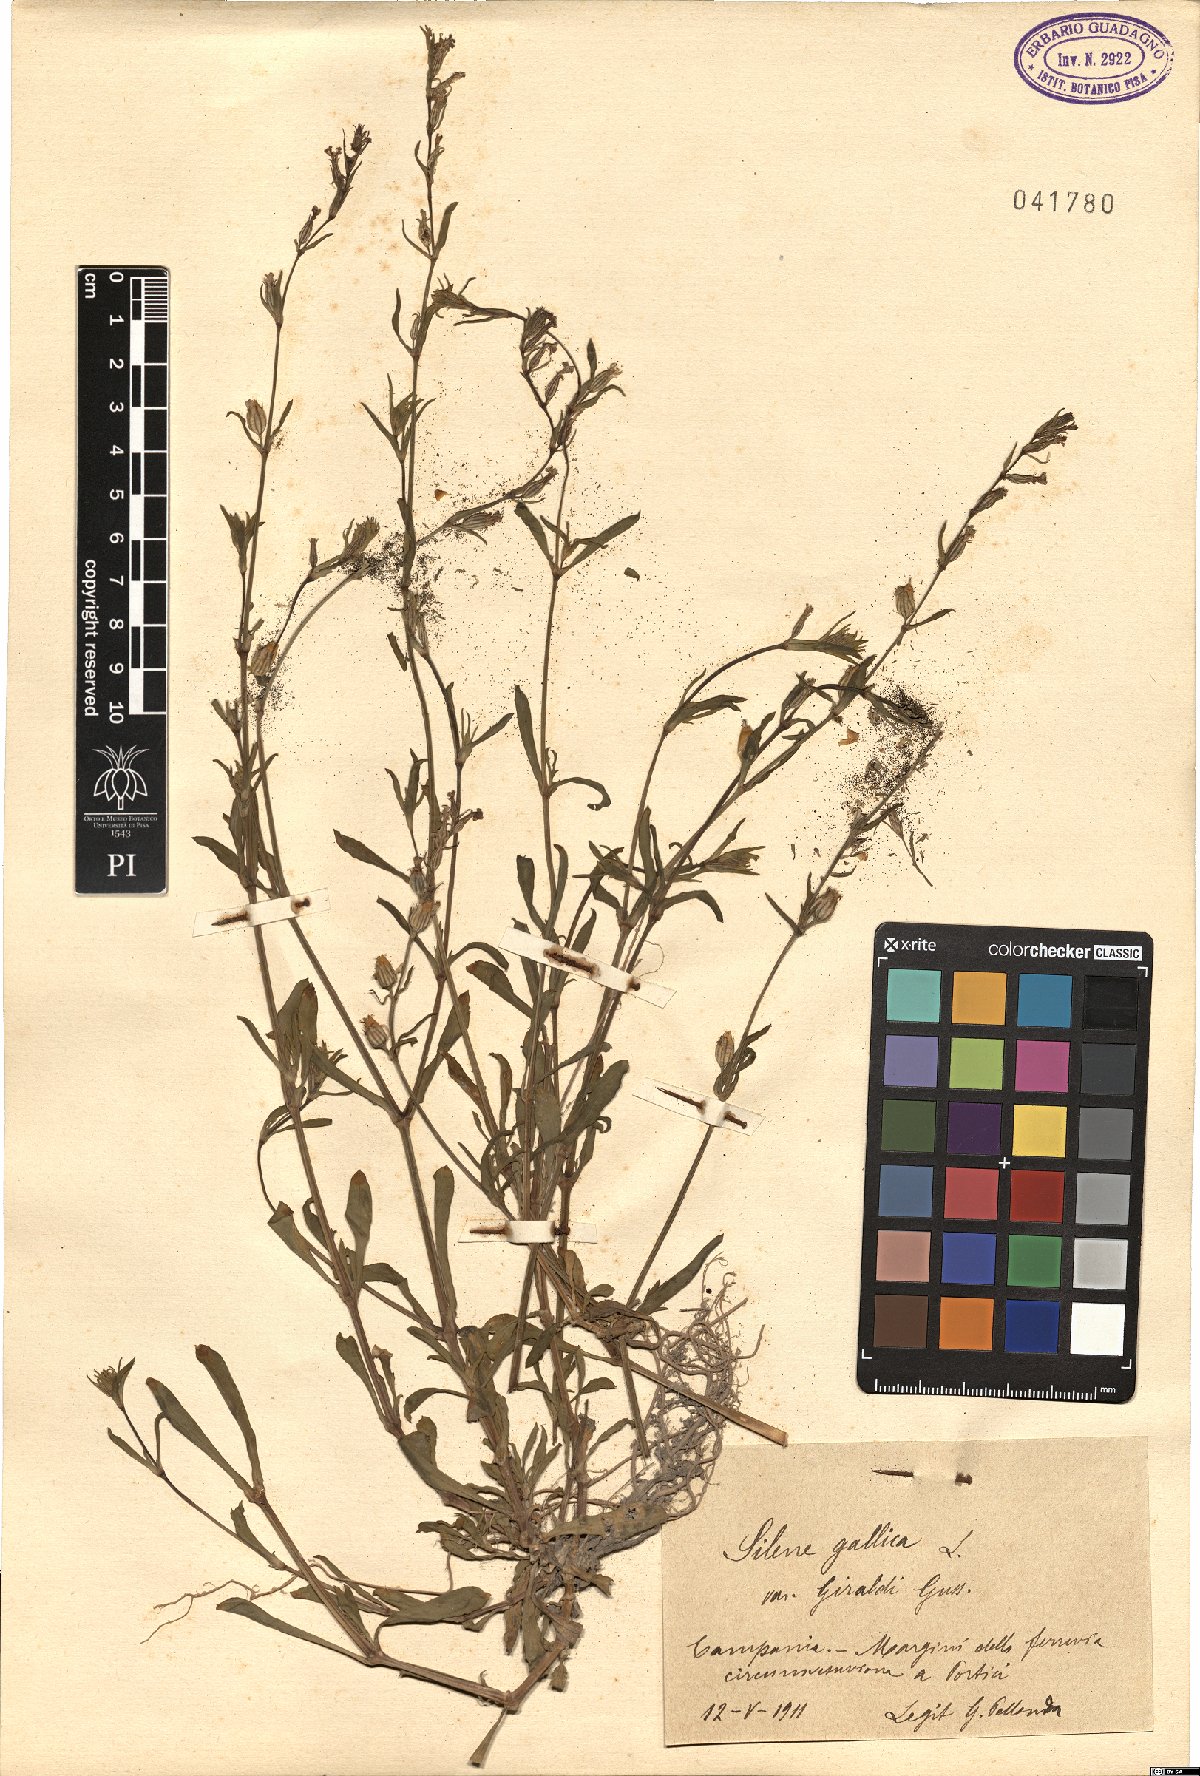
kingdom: Plantae
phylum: Tracheophyta
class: Magnoliopsida
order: Caryophyllales
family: Caryophyllaceae
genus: Silene
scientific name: Silene gallica
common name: Small-flowered catchfly
